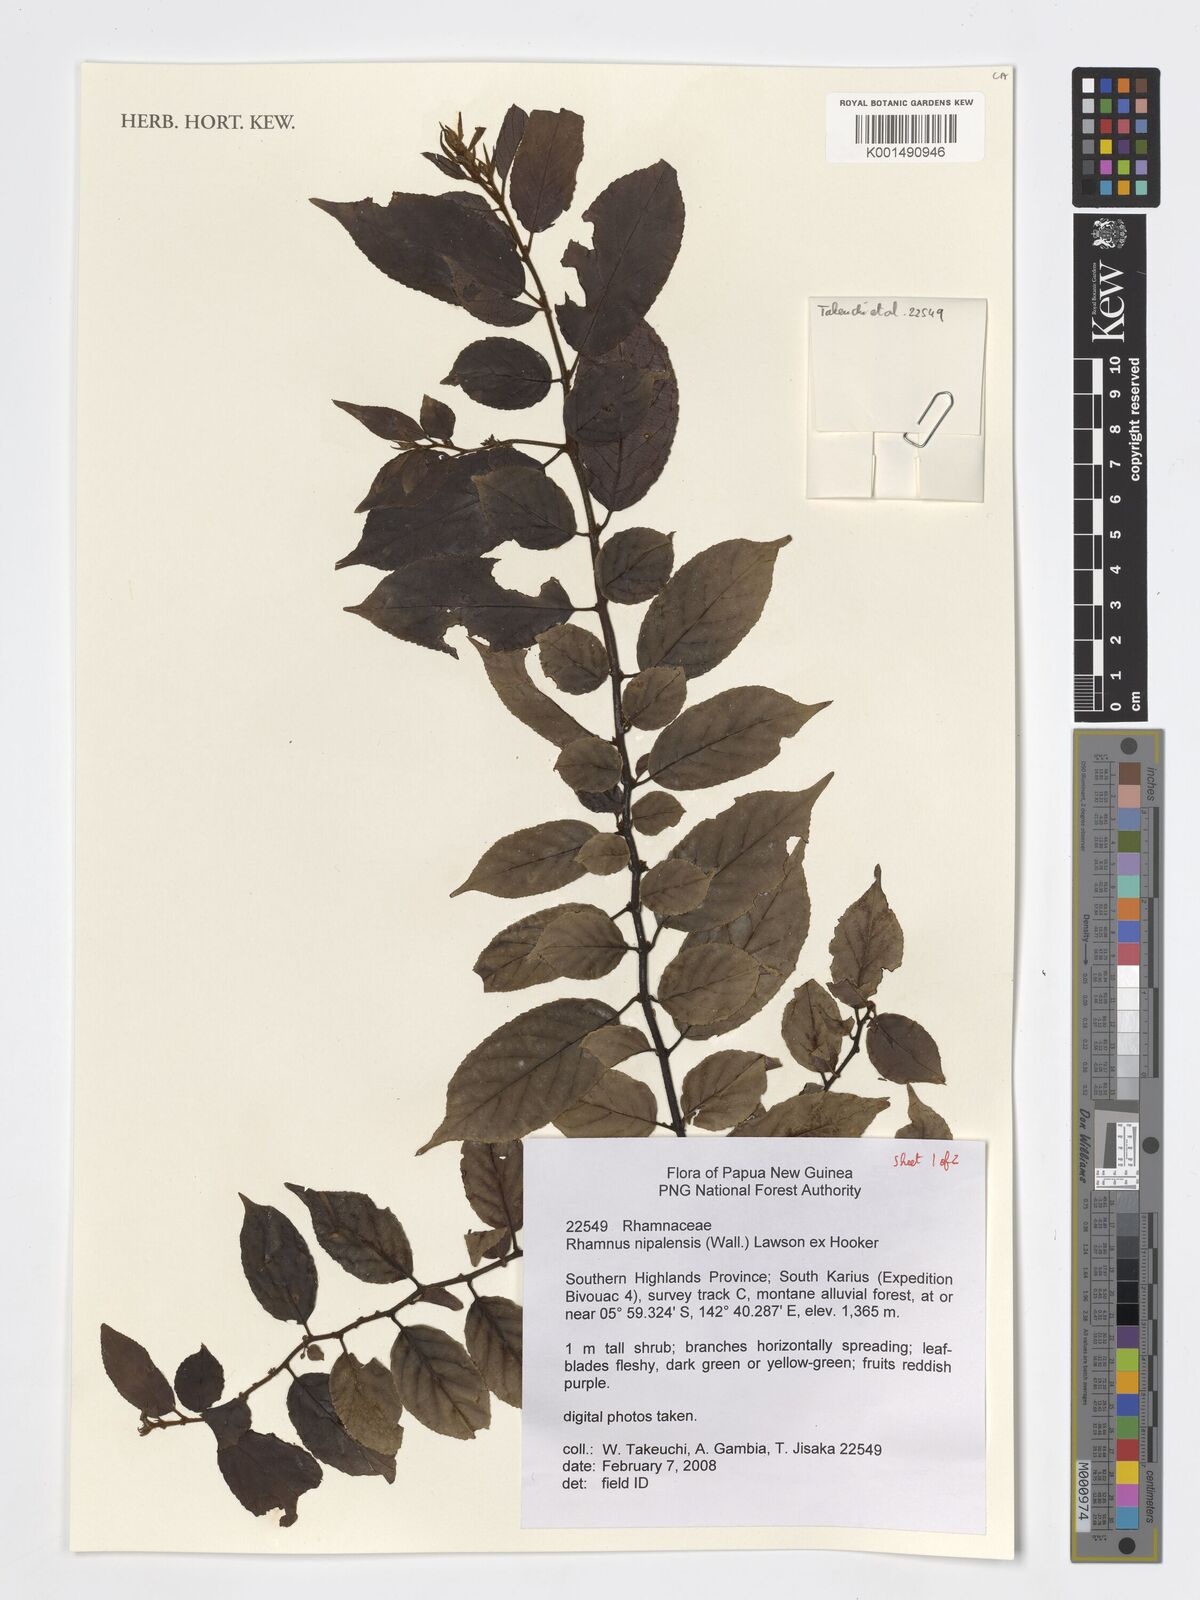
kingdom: Plantae
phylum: Tracheophyta
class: Magnoliopsida
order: Rosales
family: Rhamnaceae
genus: Rhamnus
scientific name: Rhamnus napalensis
